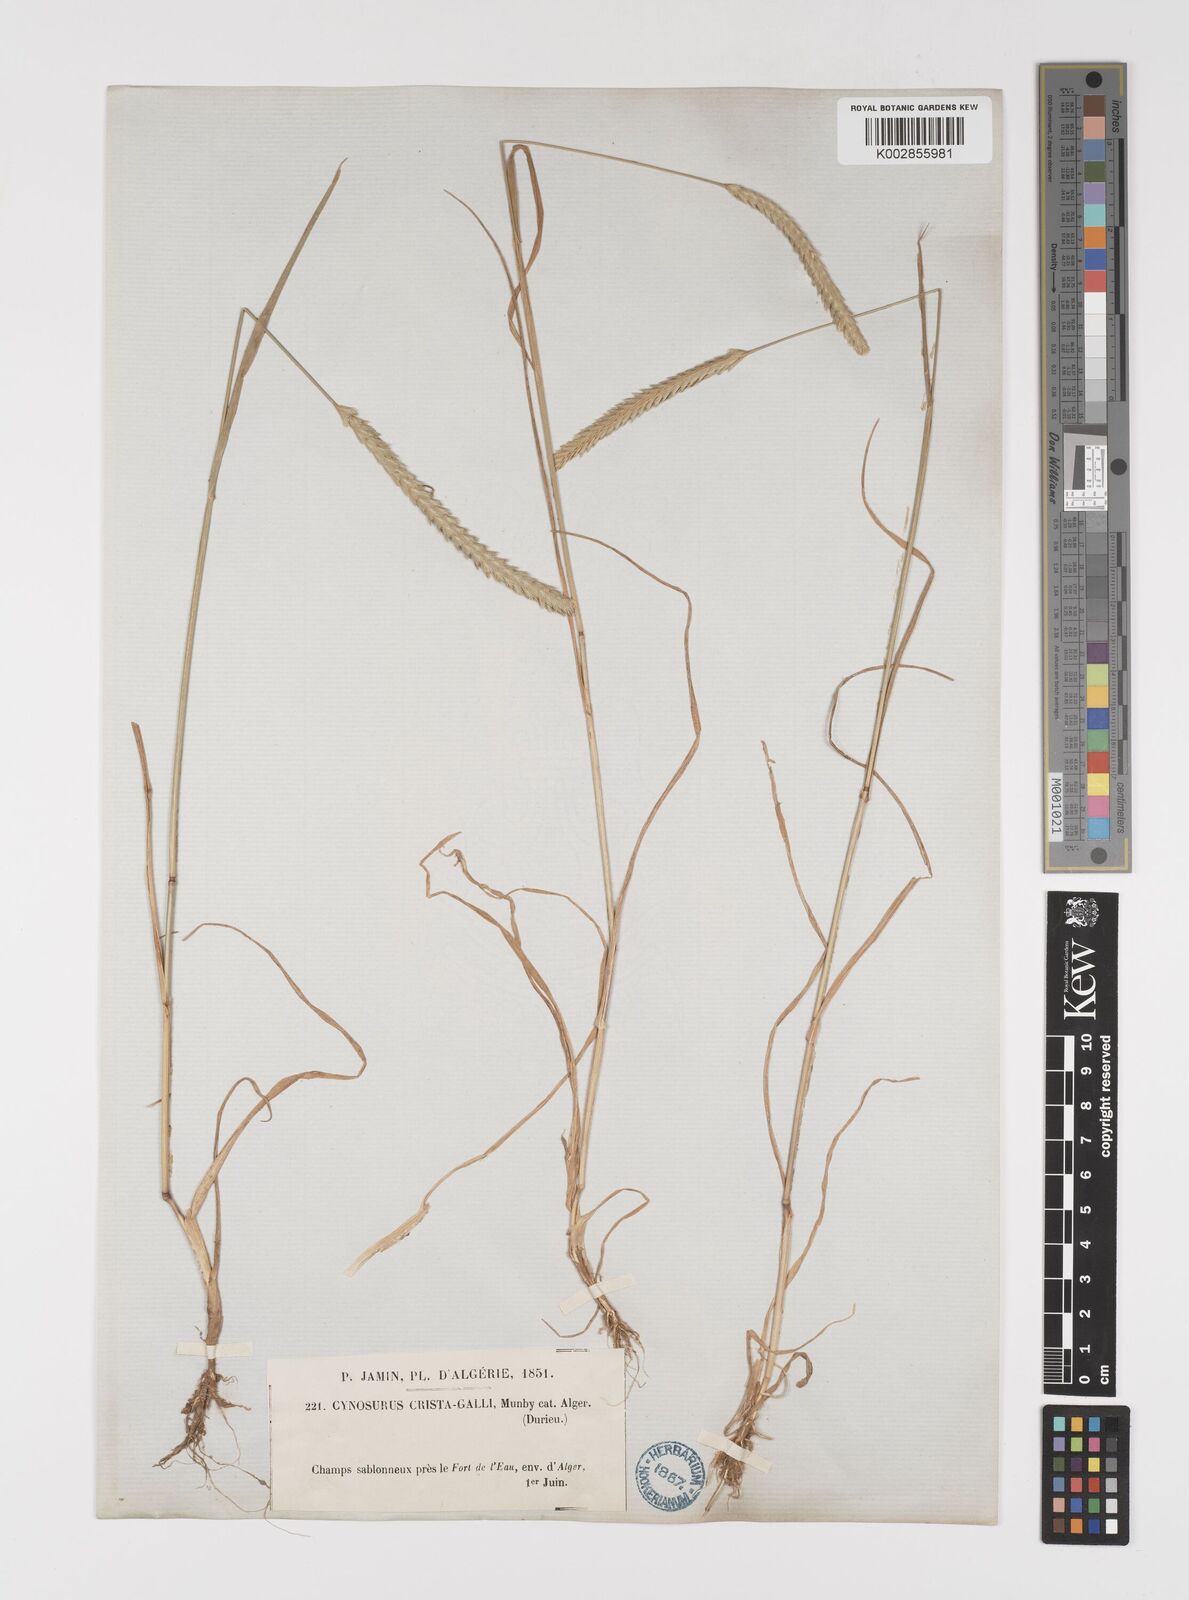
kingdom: Plantae
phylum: Tracheophyta
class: Liliopsida
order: Poales
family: Poaceae
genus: Cynosurus
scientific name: Cynosurus cristatus
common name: Crested dog's-tail
